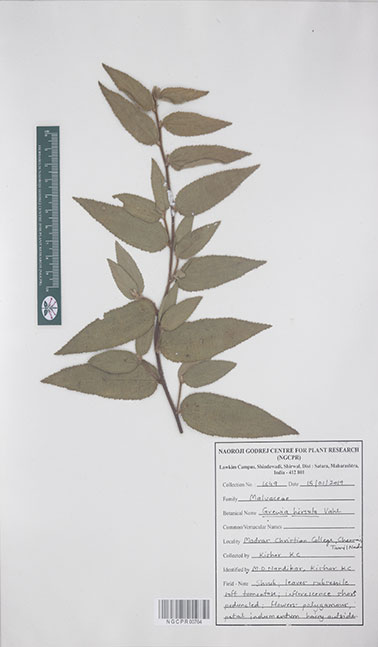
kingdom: Plantae
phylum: Tracheophyta
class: Magnoliopsida
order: Malvales
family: Malvaceae
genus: Grewia
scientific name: Grewia hirsuta
